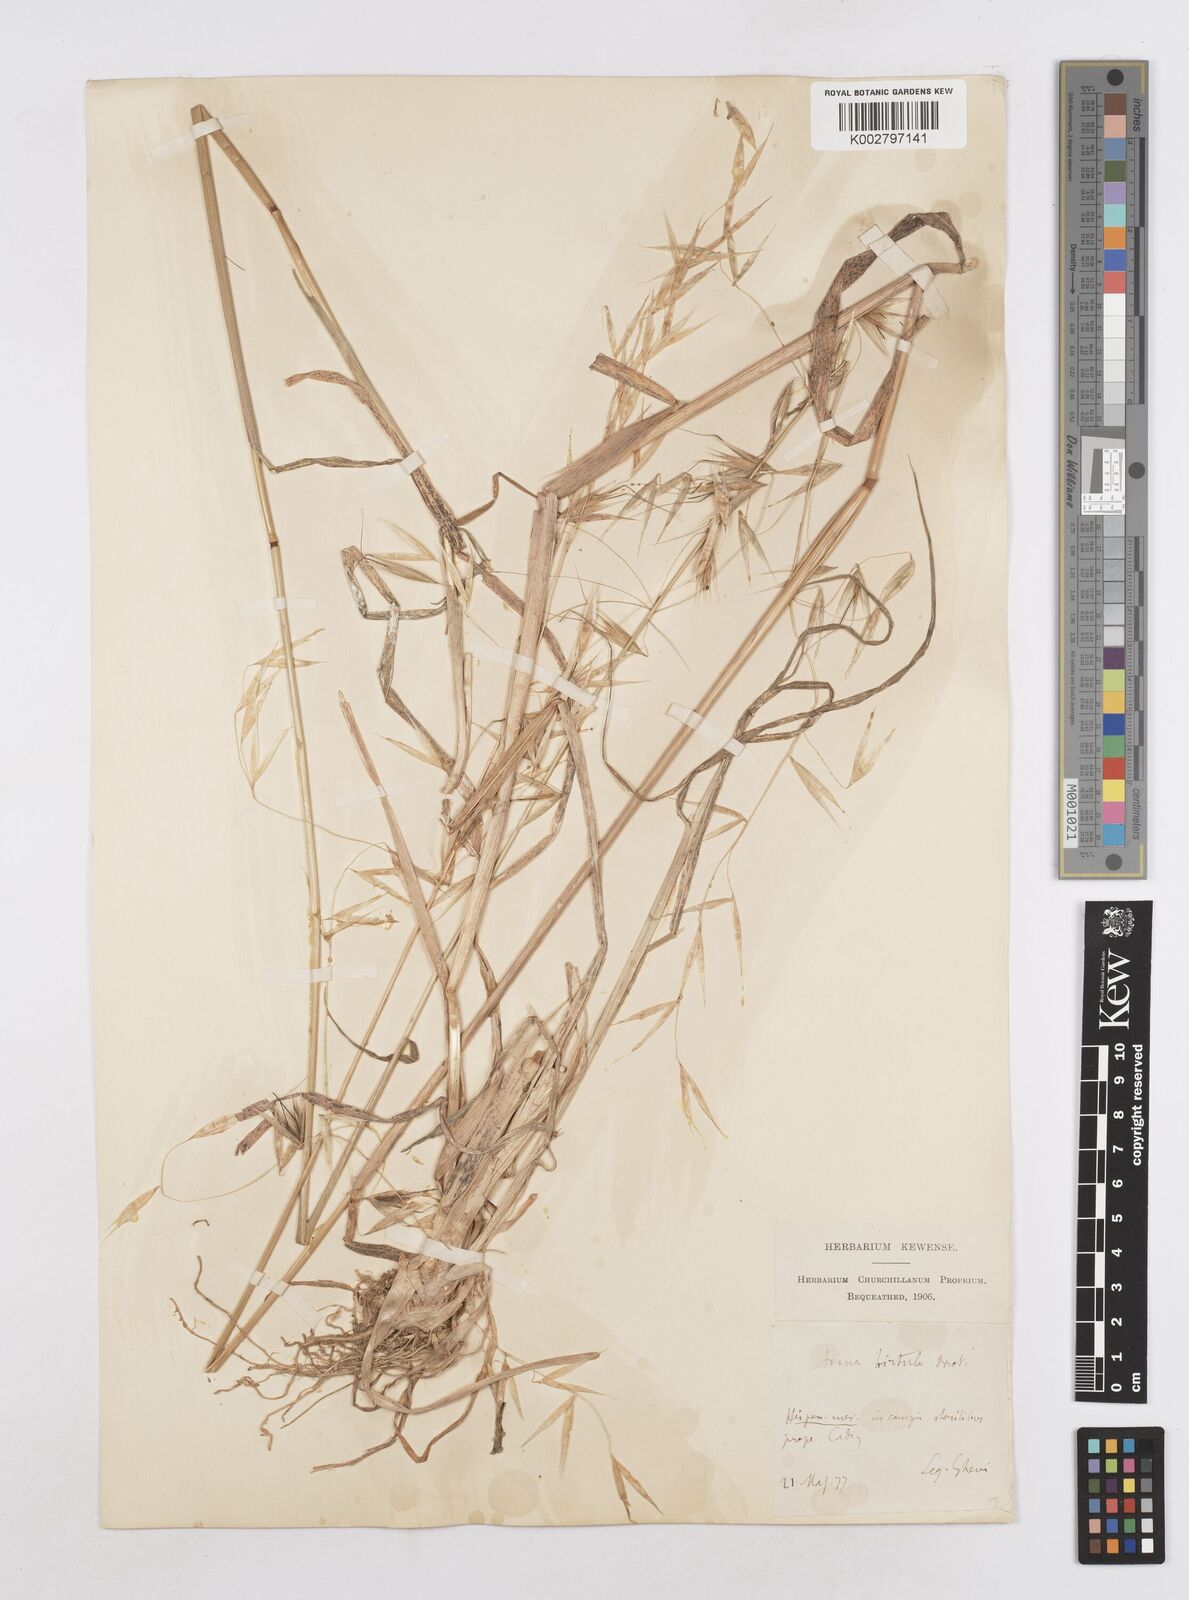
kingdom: Plantae
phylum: Tracheophyta
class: Liliopsida
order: Poales
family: Poaceae
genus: Avena
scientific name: Avena
